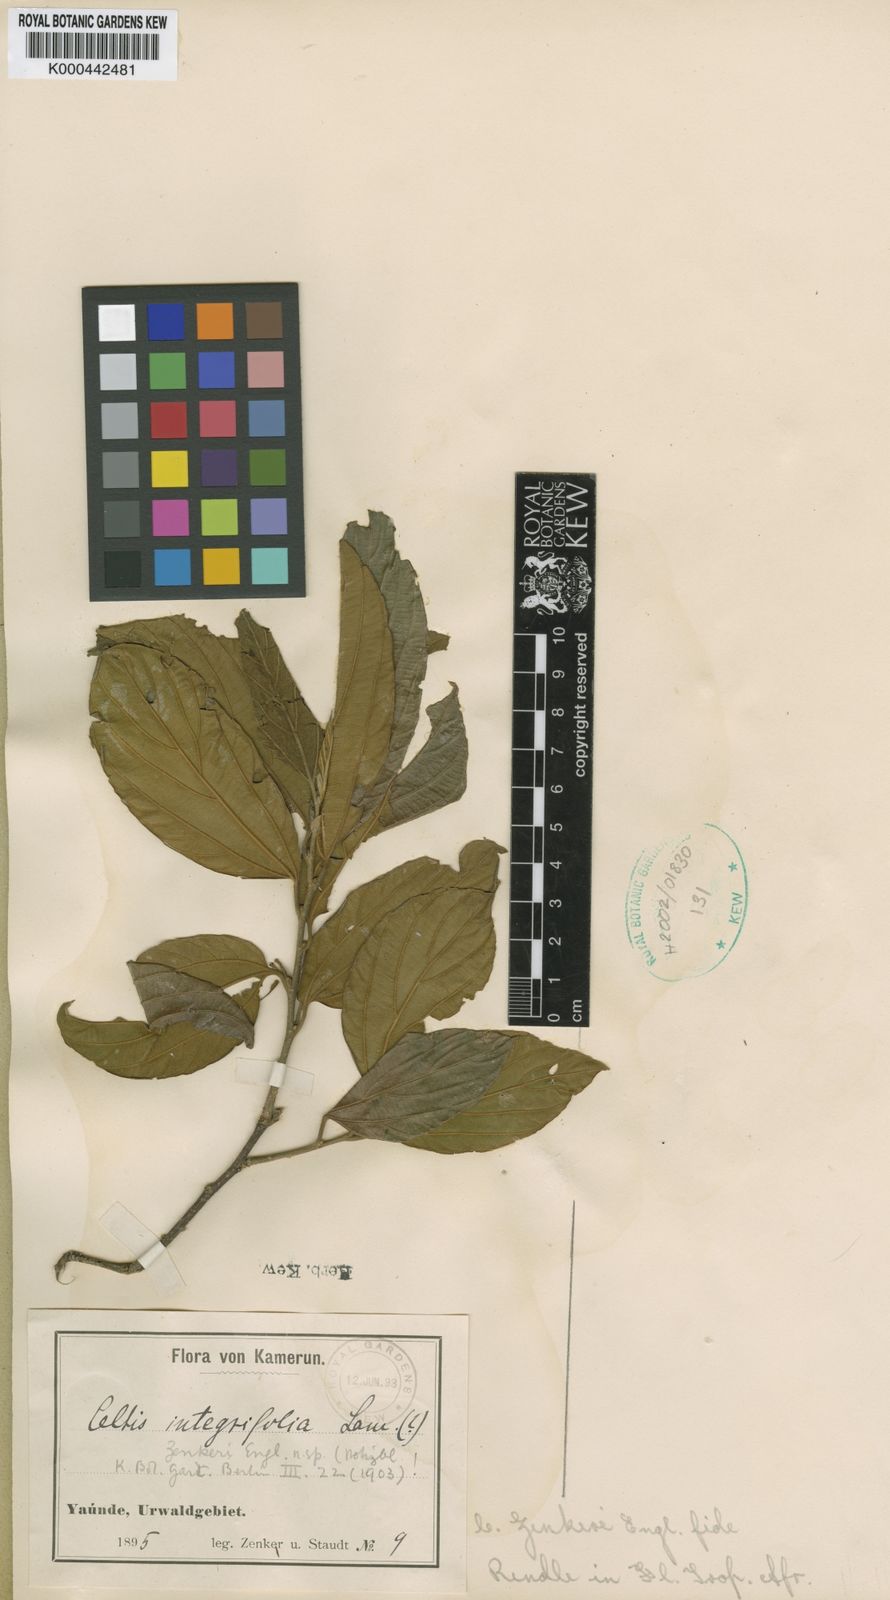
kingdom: Plantae
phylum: Tracheophyta
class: Magnoliopsida
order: Rosales
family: Cannabaceae
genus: Celtis
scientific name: Celtis zenkeri
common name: African celtis
